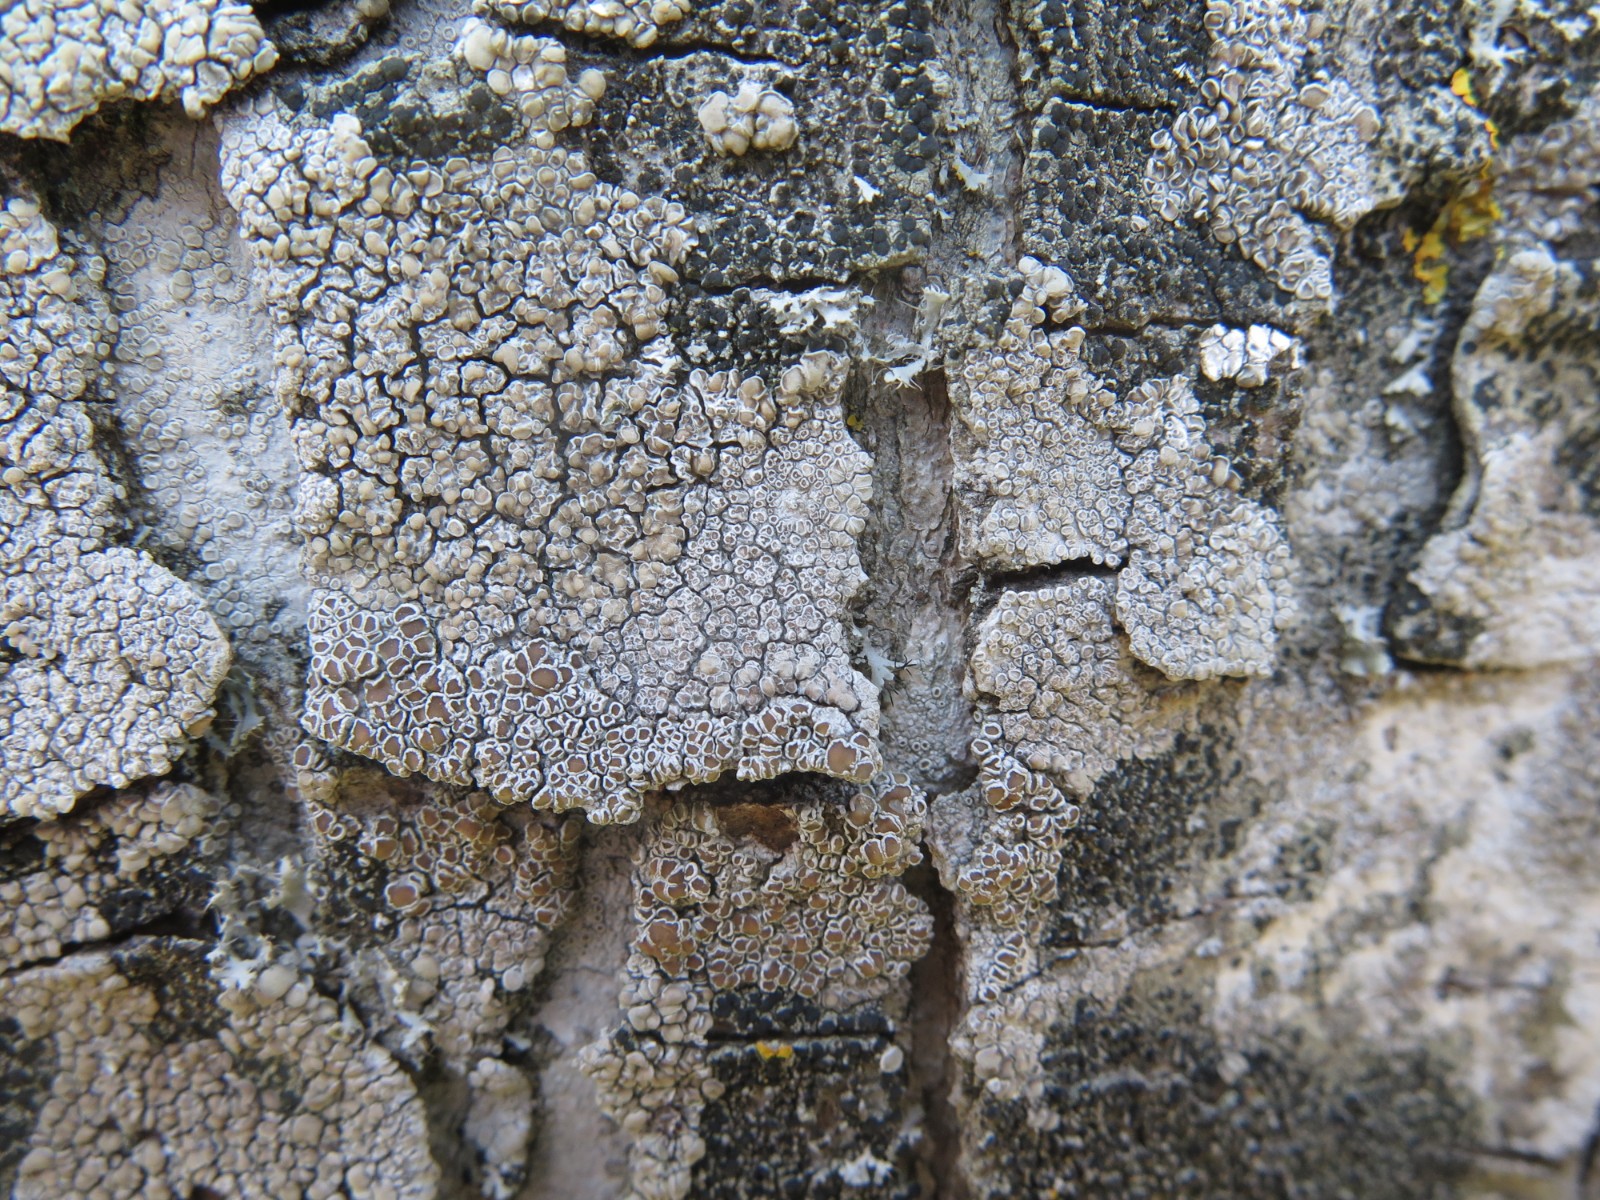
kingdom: Fungi
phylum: Ascomycota
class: Lecanoromycetes
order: Lecanorales
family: Lecanoraceae
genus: Glaucomaria
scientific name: Glaucomaria carpinea
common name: hviddugget kantskivelav
